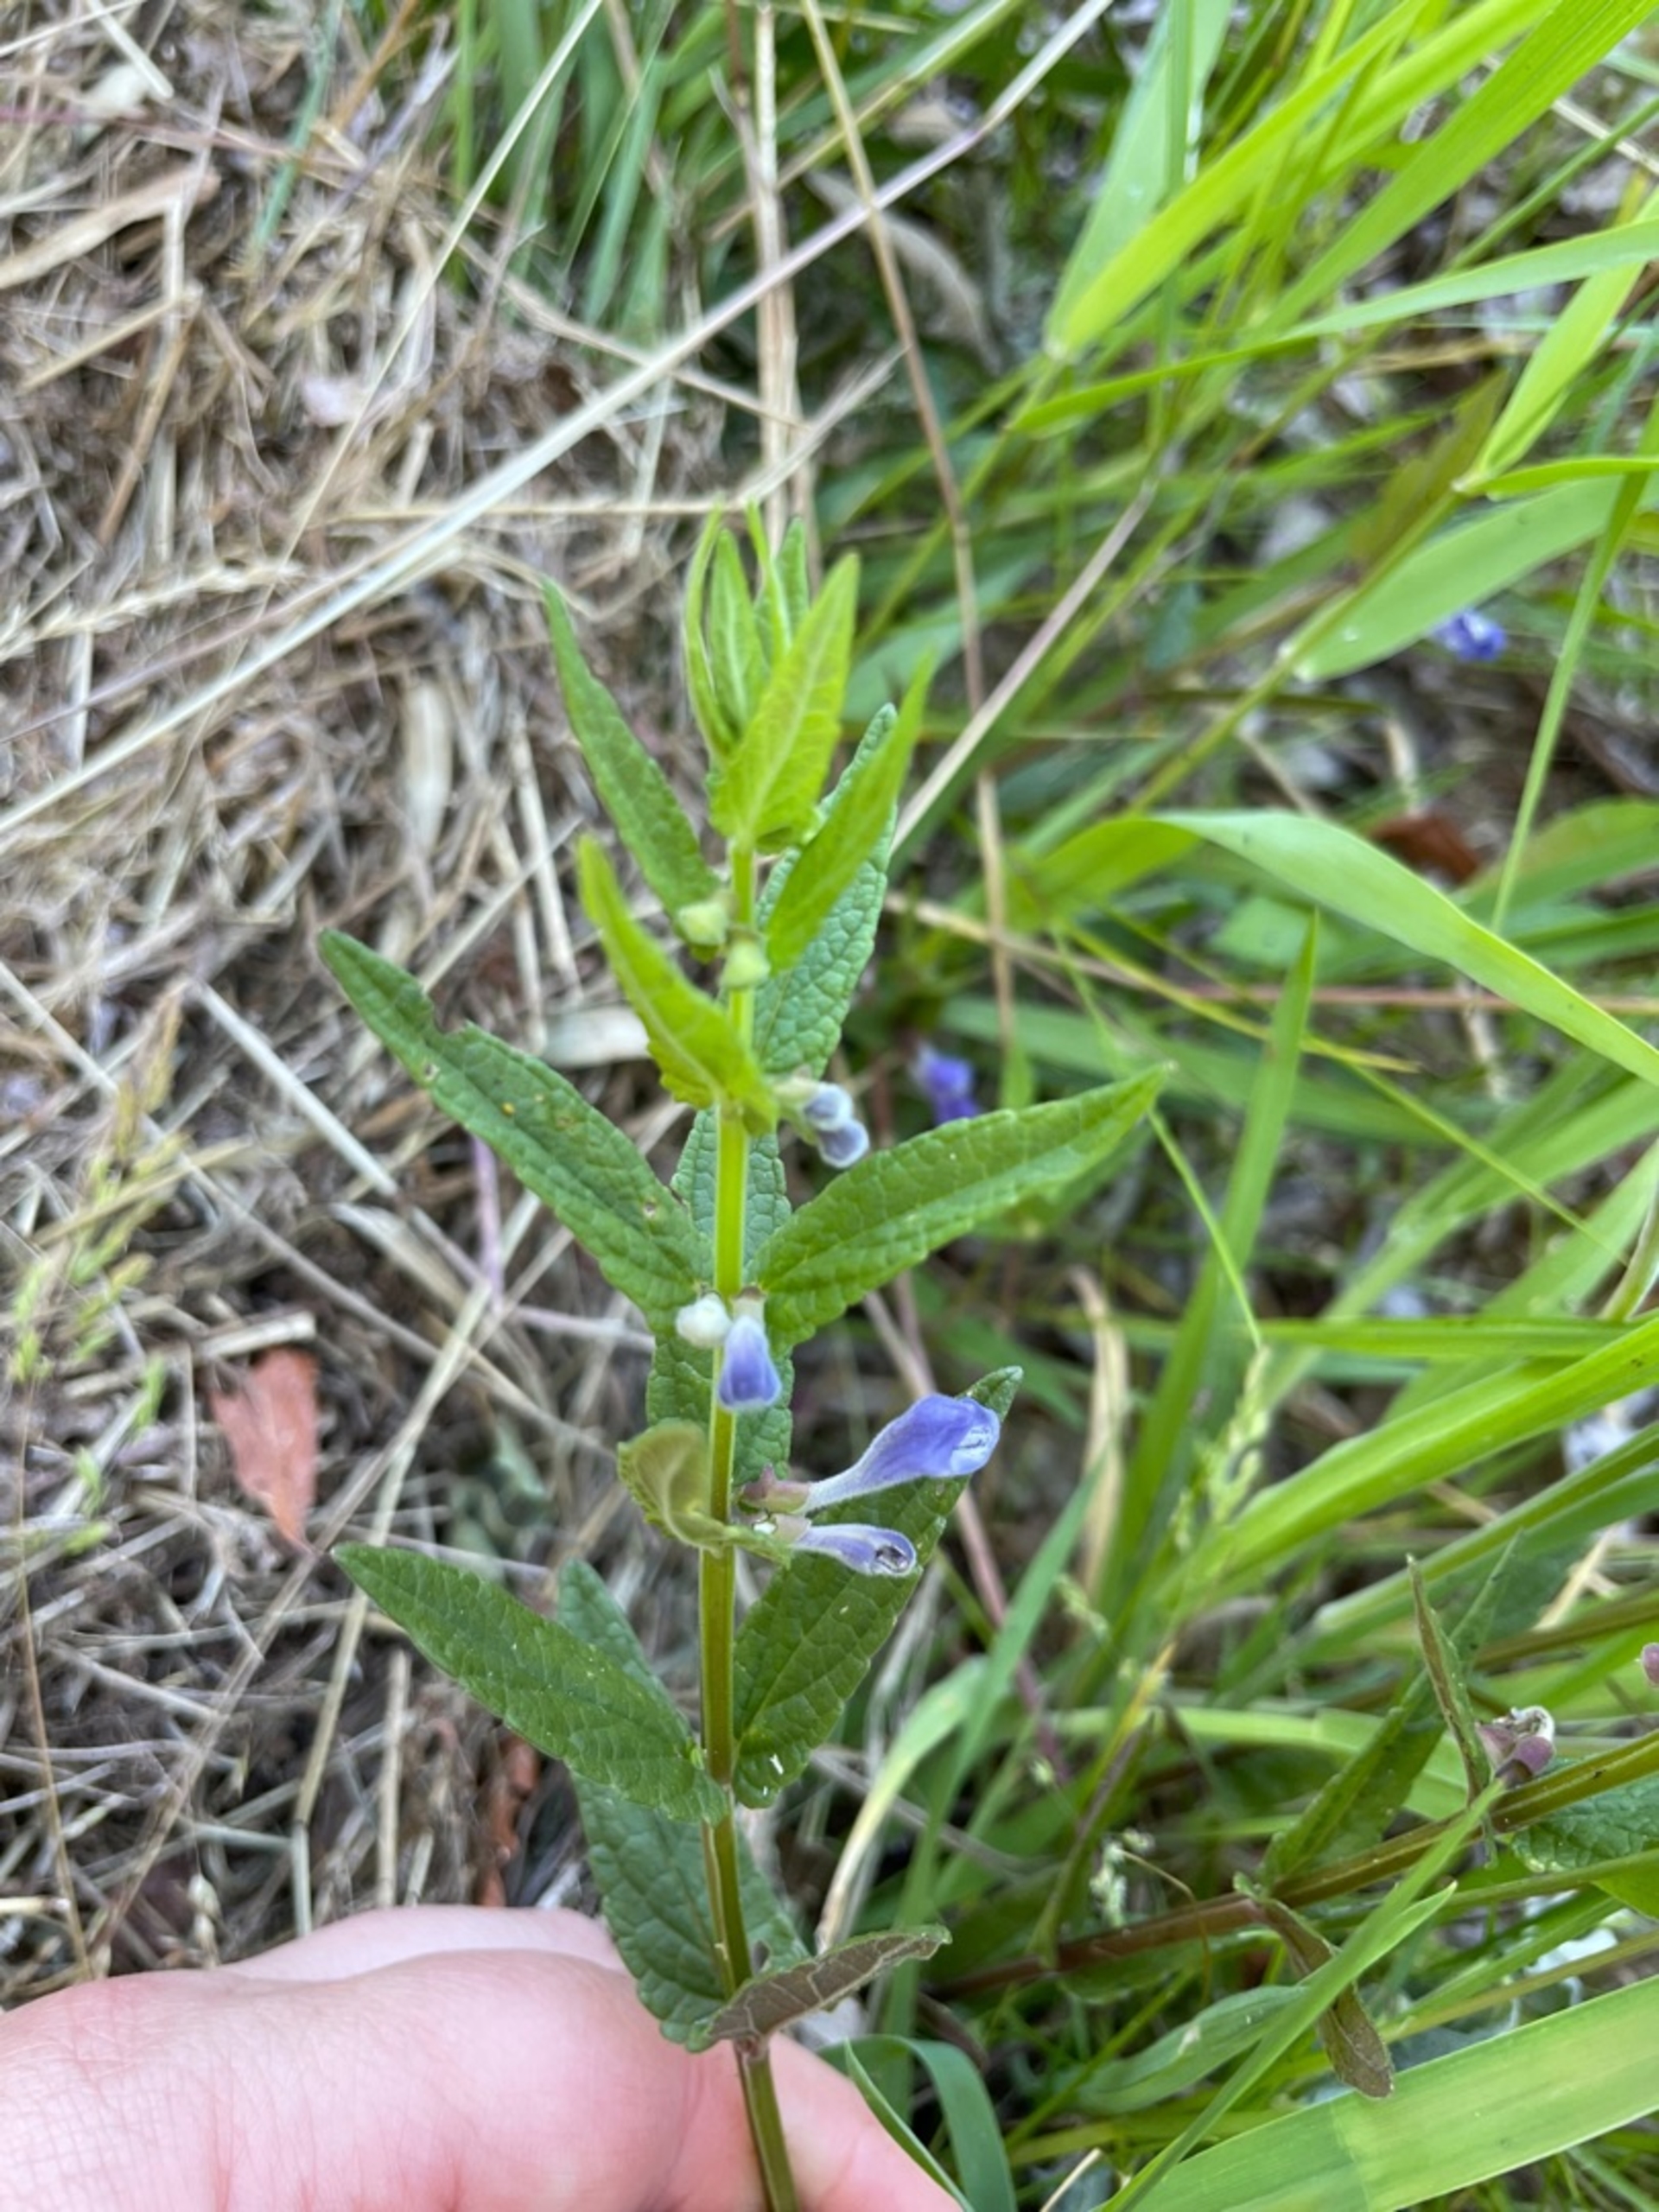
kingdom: Plantae
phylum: Tracheophyta
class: Magnoliopsida
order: Lamiales
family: Lamiaceae
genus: Scutellaria
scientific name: Scutellaria galericulata
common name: Almindelig skjolddrager
